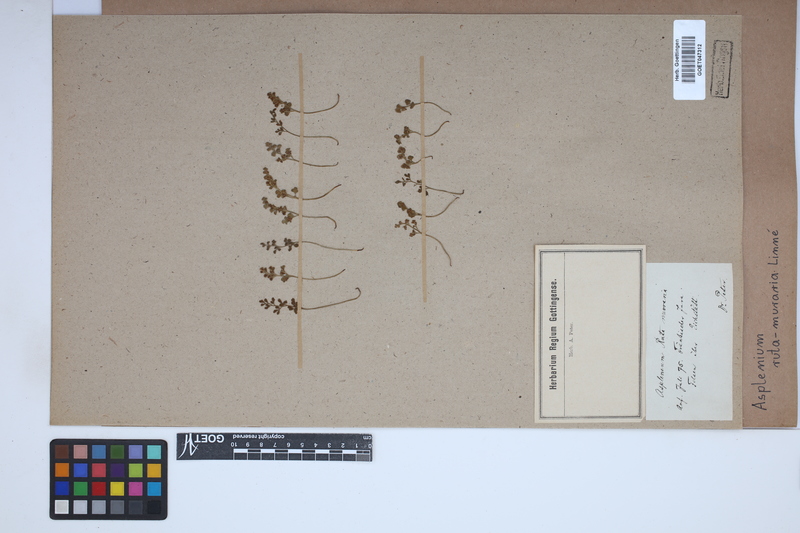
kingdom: Plantae
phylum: Tracheophyta
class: Polypodiopsida
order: Polypodiales
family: Aspleniaceae
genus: Asplenium
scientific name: Asplenium ruta-muraria
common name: Wall-rue
